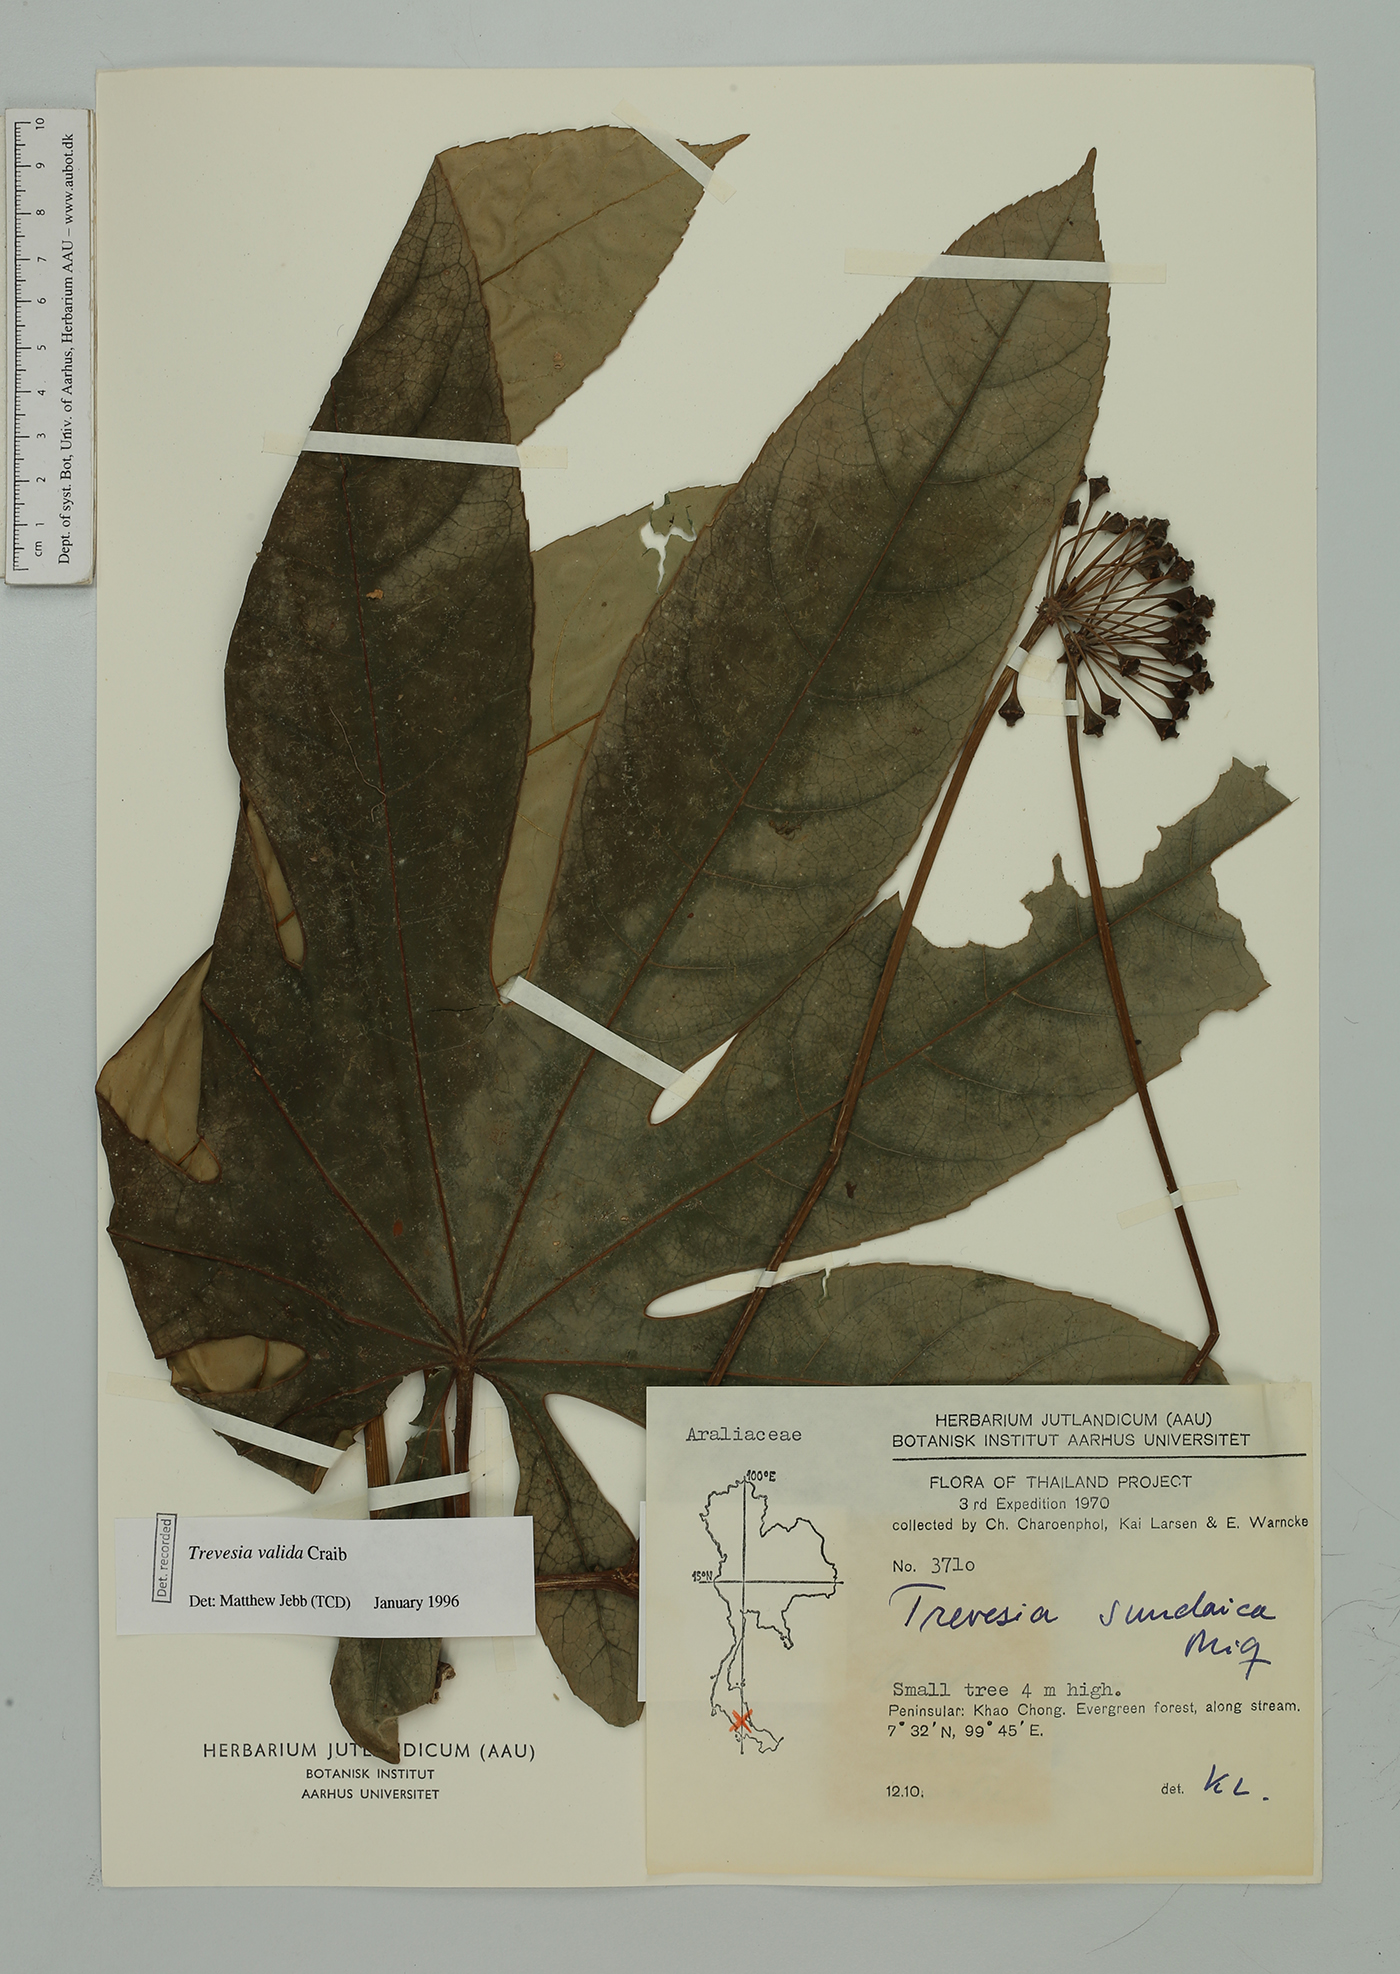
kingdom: Plantae
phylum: Tracheophyta
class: Magnoliopsida
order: Apiales
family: Araliaceae
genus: Trevesia
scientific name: Trevesia valida
